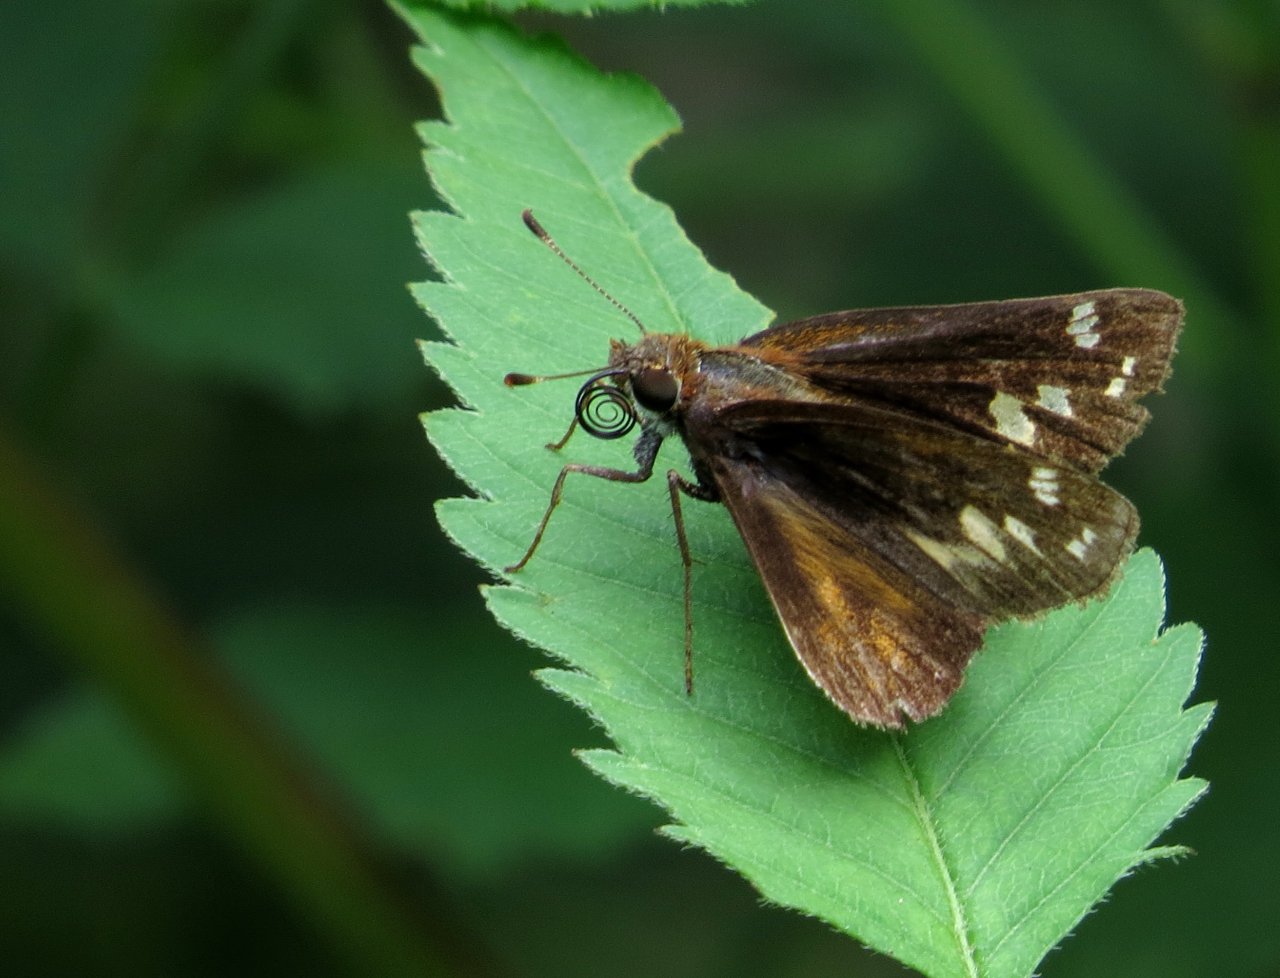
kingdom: Animalia
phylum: Arthropoda
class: Insecta
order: Lepidoptera
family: Hesperiidae
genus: Atalopedes
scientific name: Atalopedes campestris
